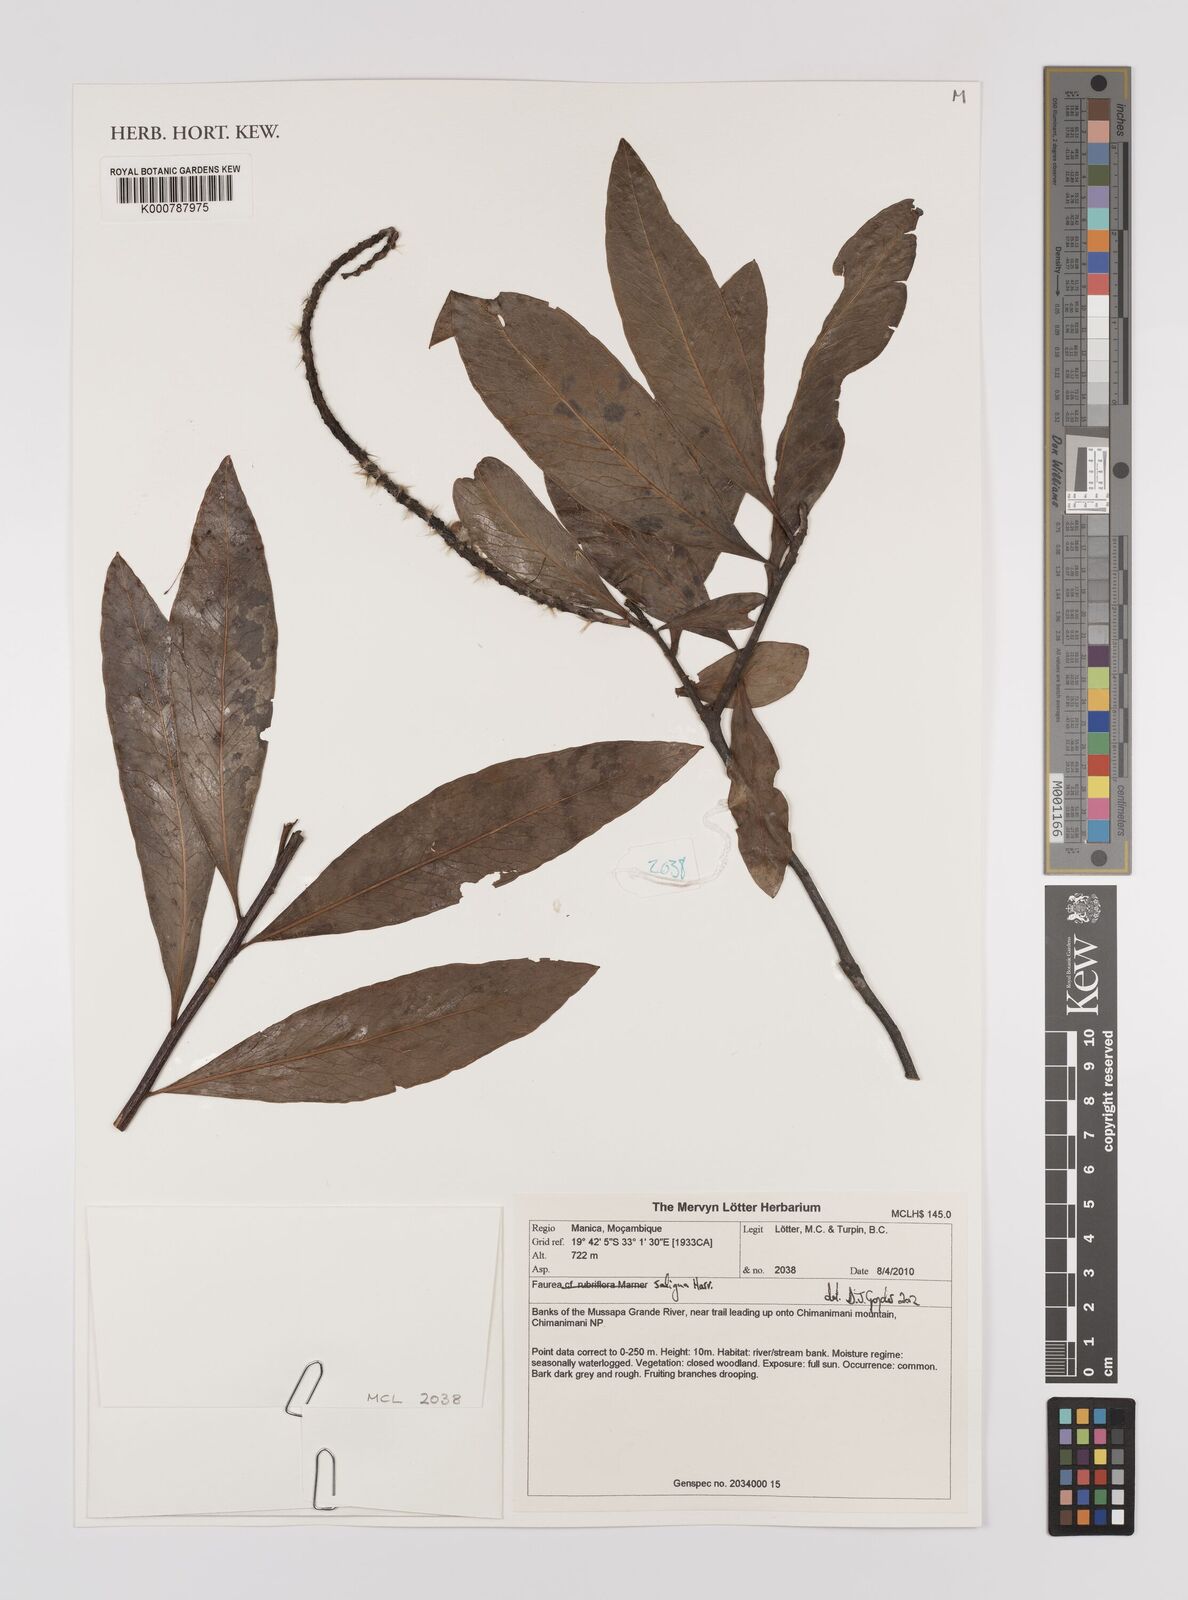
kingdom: Plantae
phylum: Tracheophyta
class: Magnoliopsida
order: Proteales
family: Proteaceae
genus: Faurea
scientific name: Faurea saligna
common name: African bean
